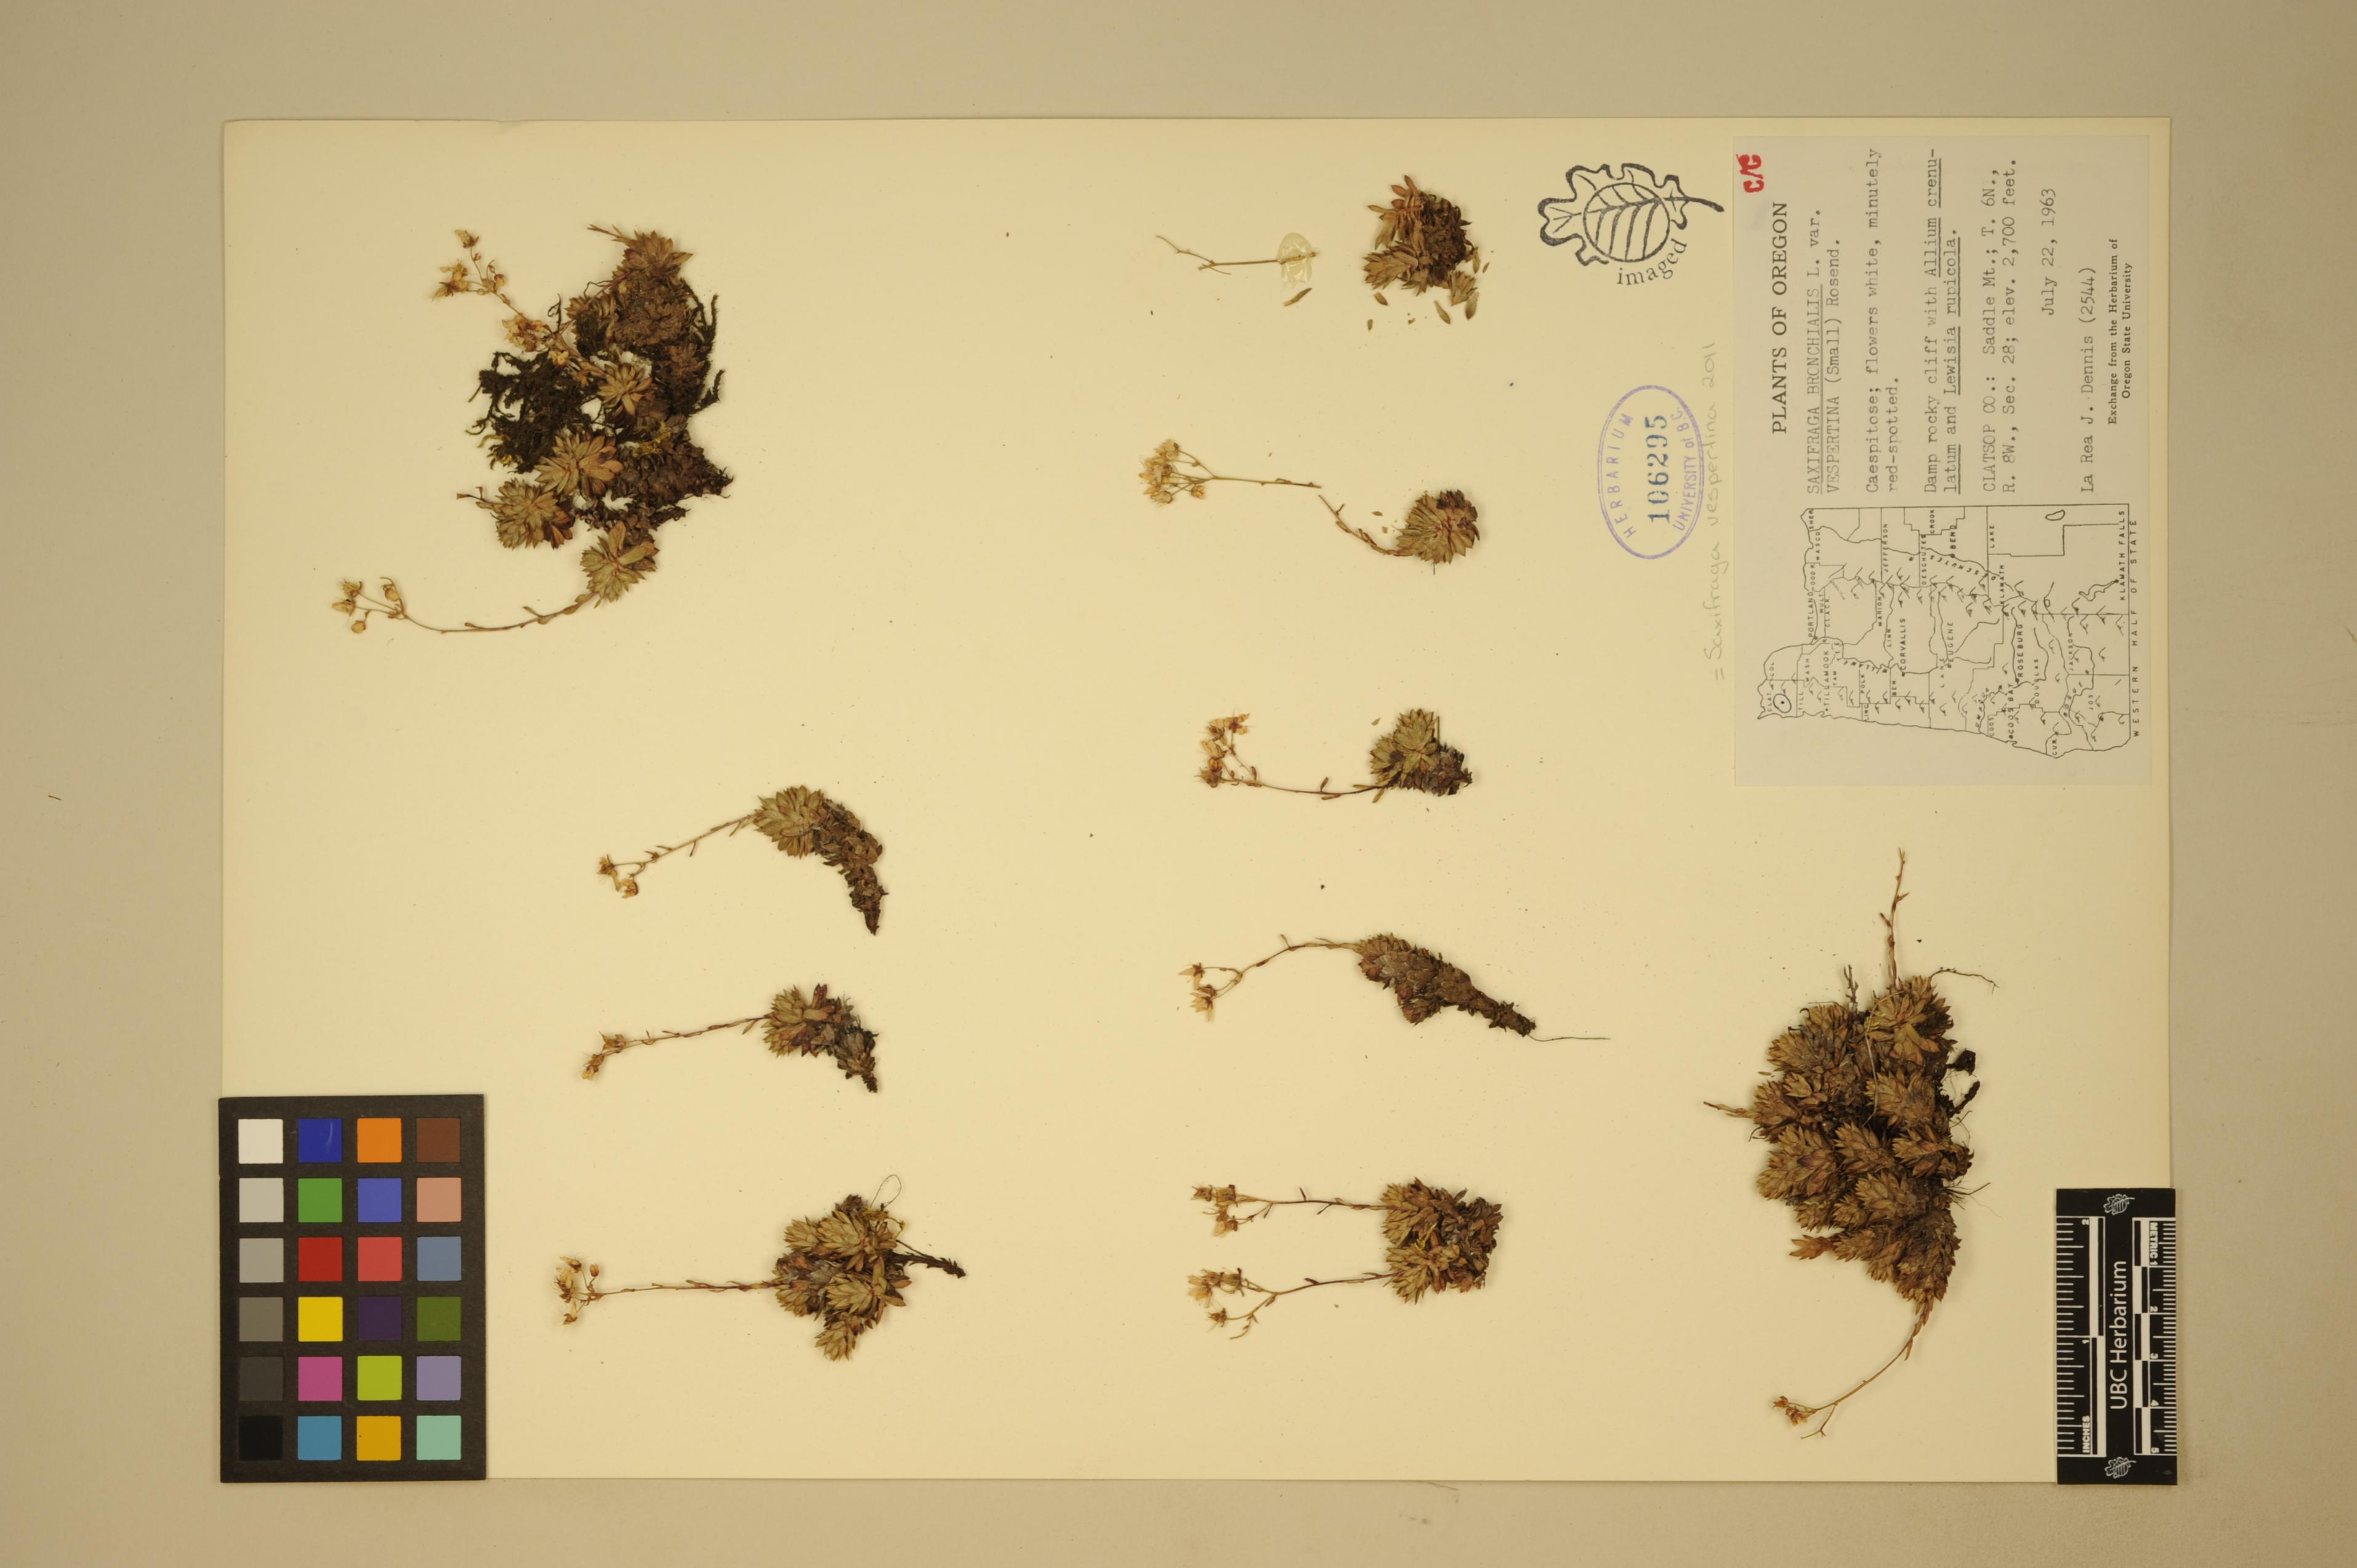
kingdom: Plantae
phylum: Tracheophyta
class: Magnoliopsida
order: Saxifragales
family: Saxifragaceae
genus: Saxifraga
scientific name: Saxifraga vespertina
